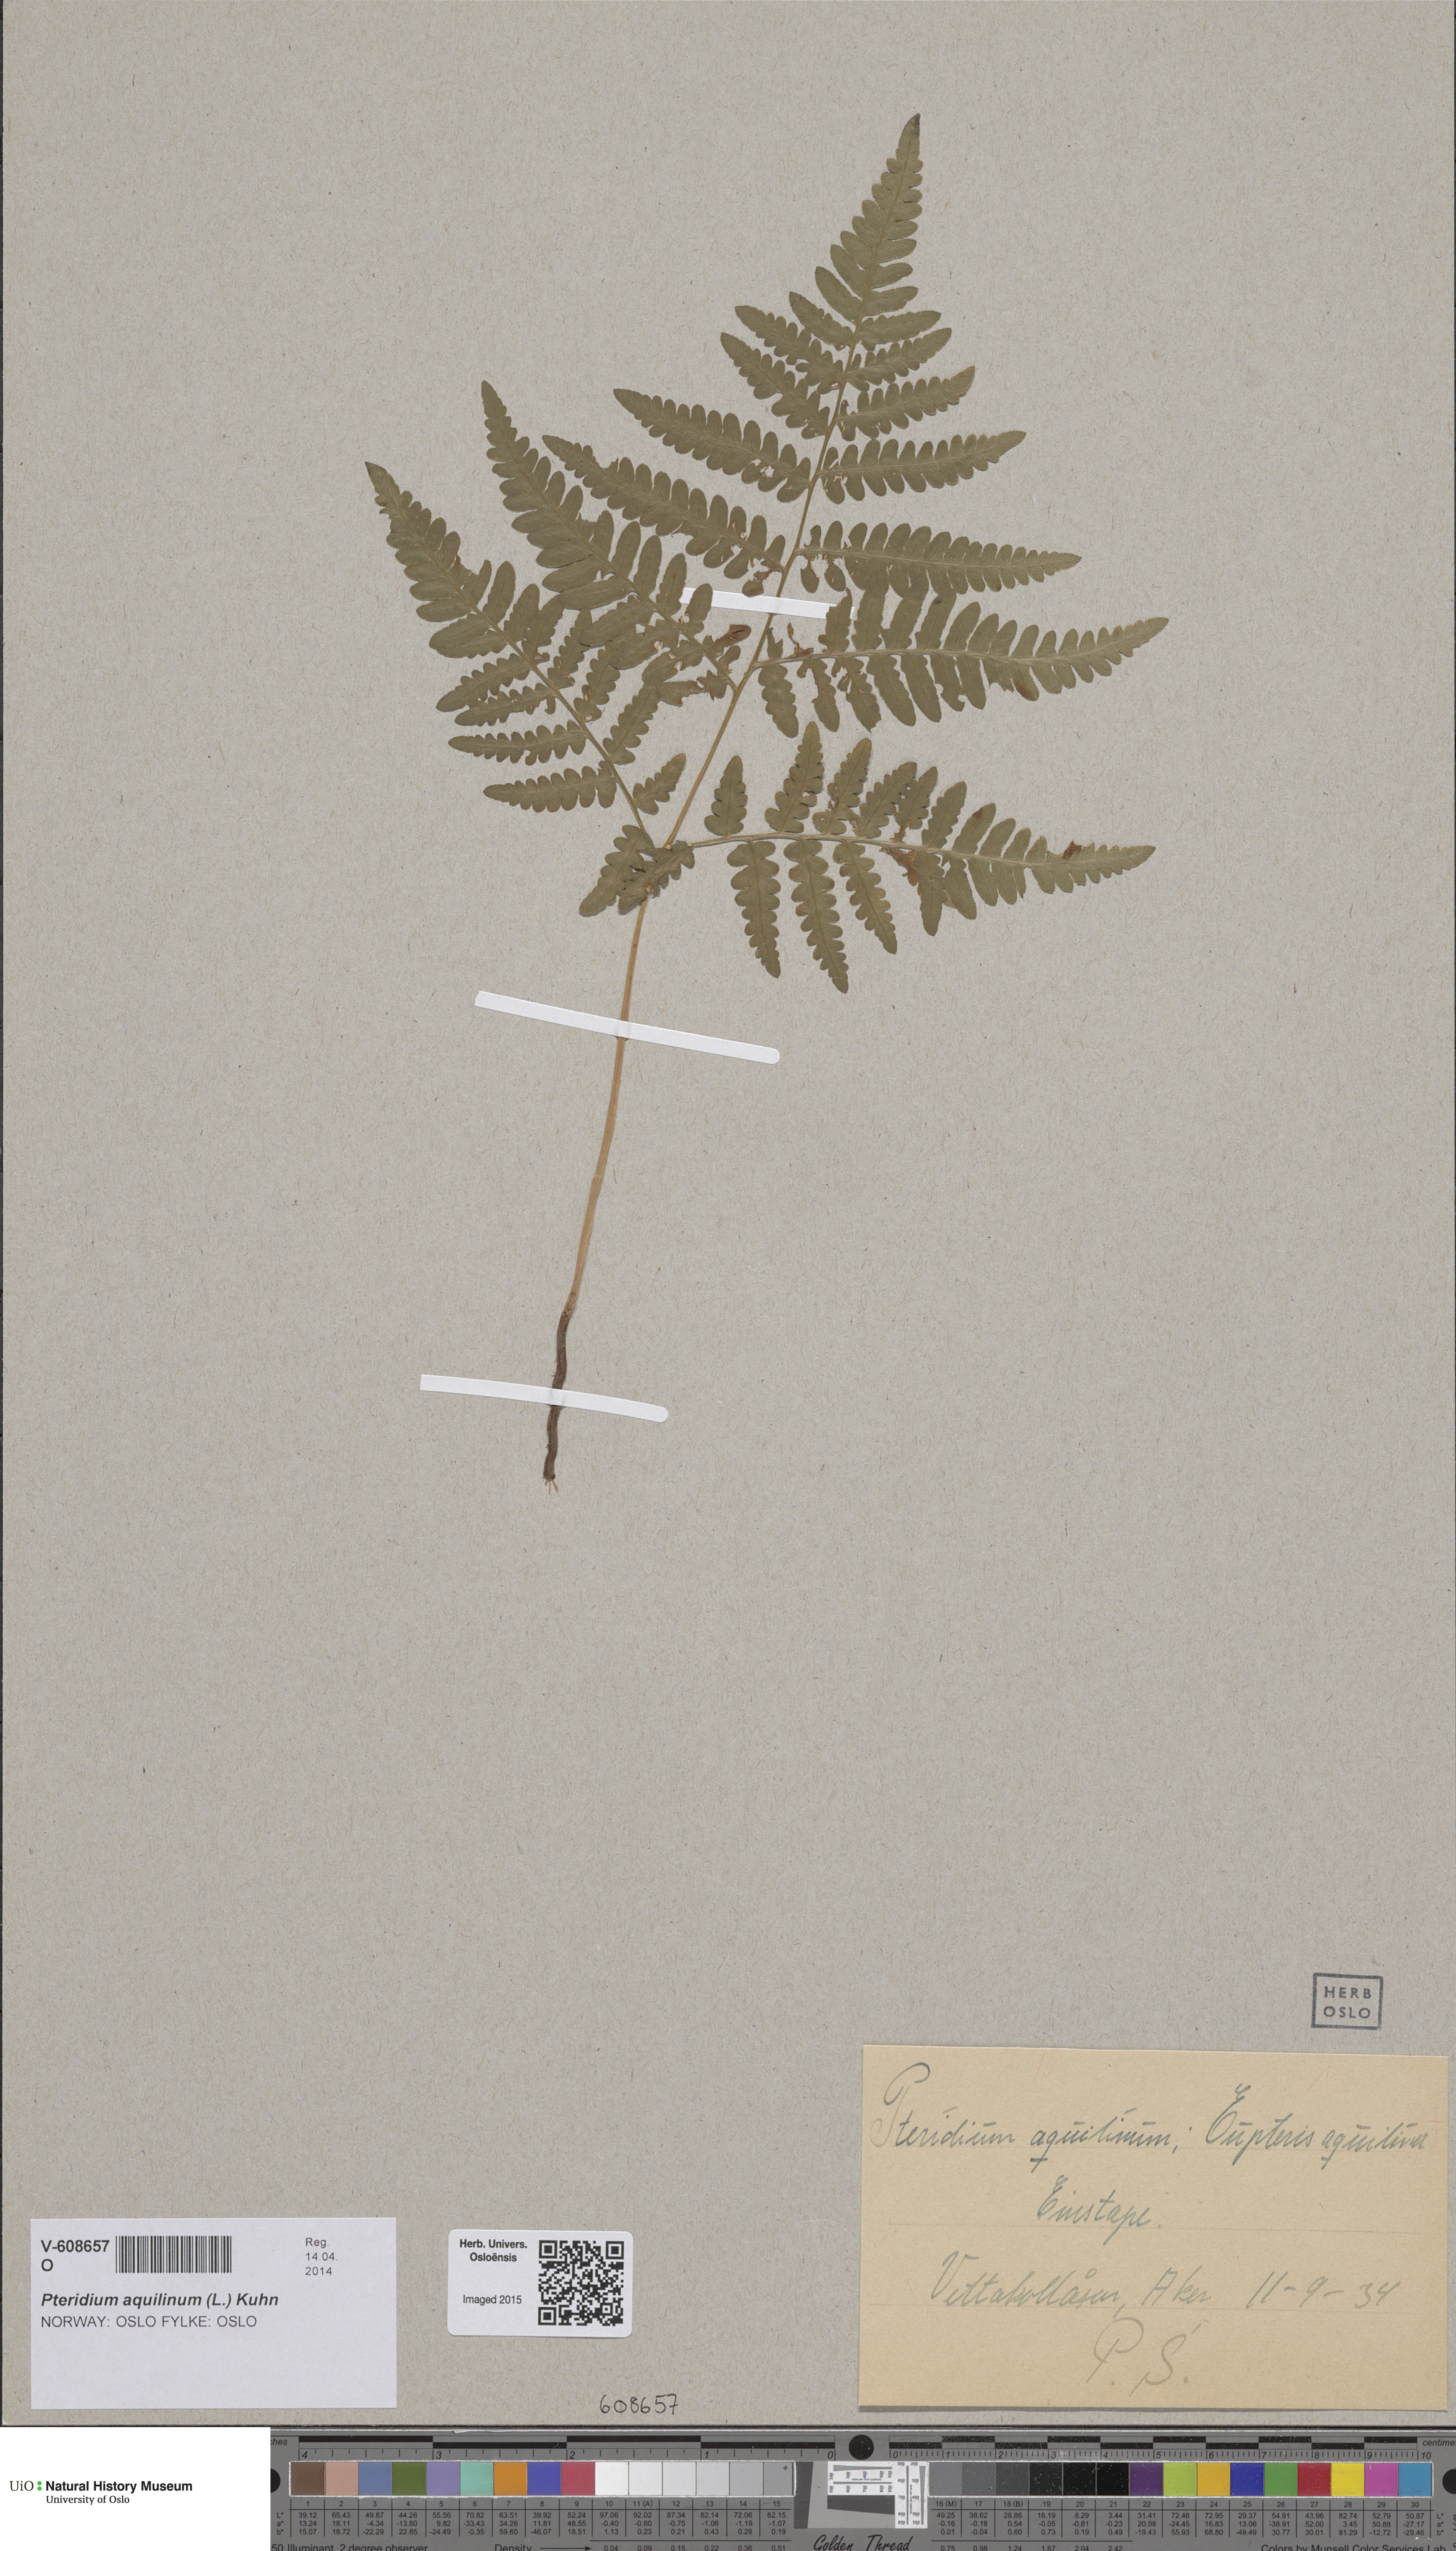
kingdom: Plantae
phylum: Tracheophyta
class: Polypodiopsida
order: Polypodiales
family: Dennstaedtiaceae
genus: Pteridium
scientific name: Pteridium aquilinum
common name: Bracken
